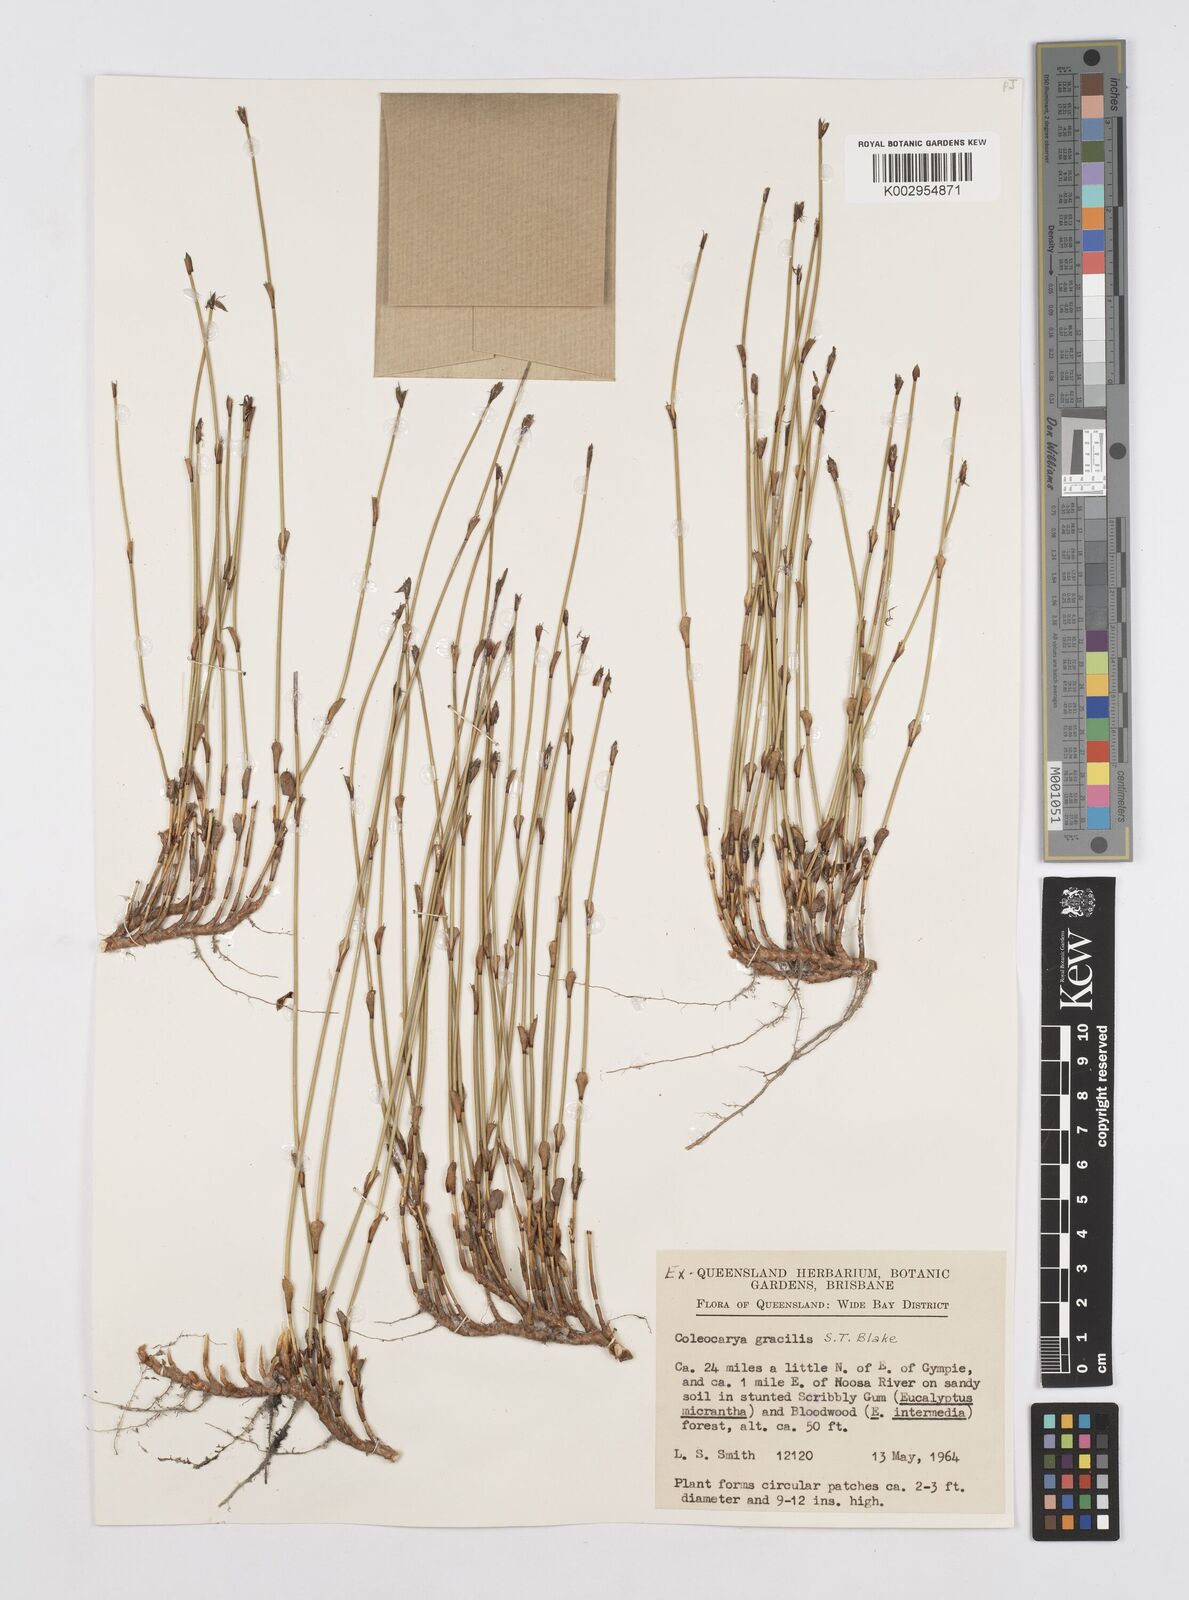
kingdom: Plantae
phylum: Tracheophyta
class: Liliopsida
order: Poales
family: Restionaceae
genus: Coleocarya
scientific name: Coleocarya gracilis
